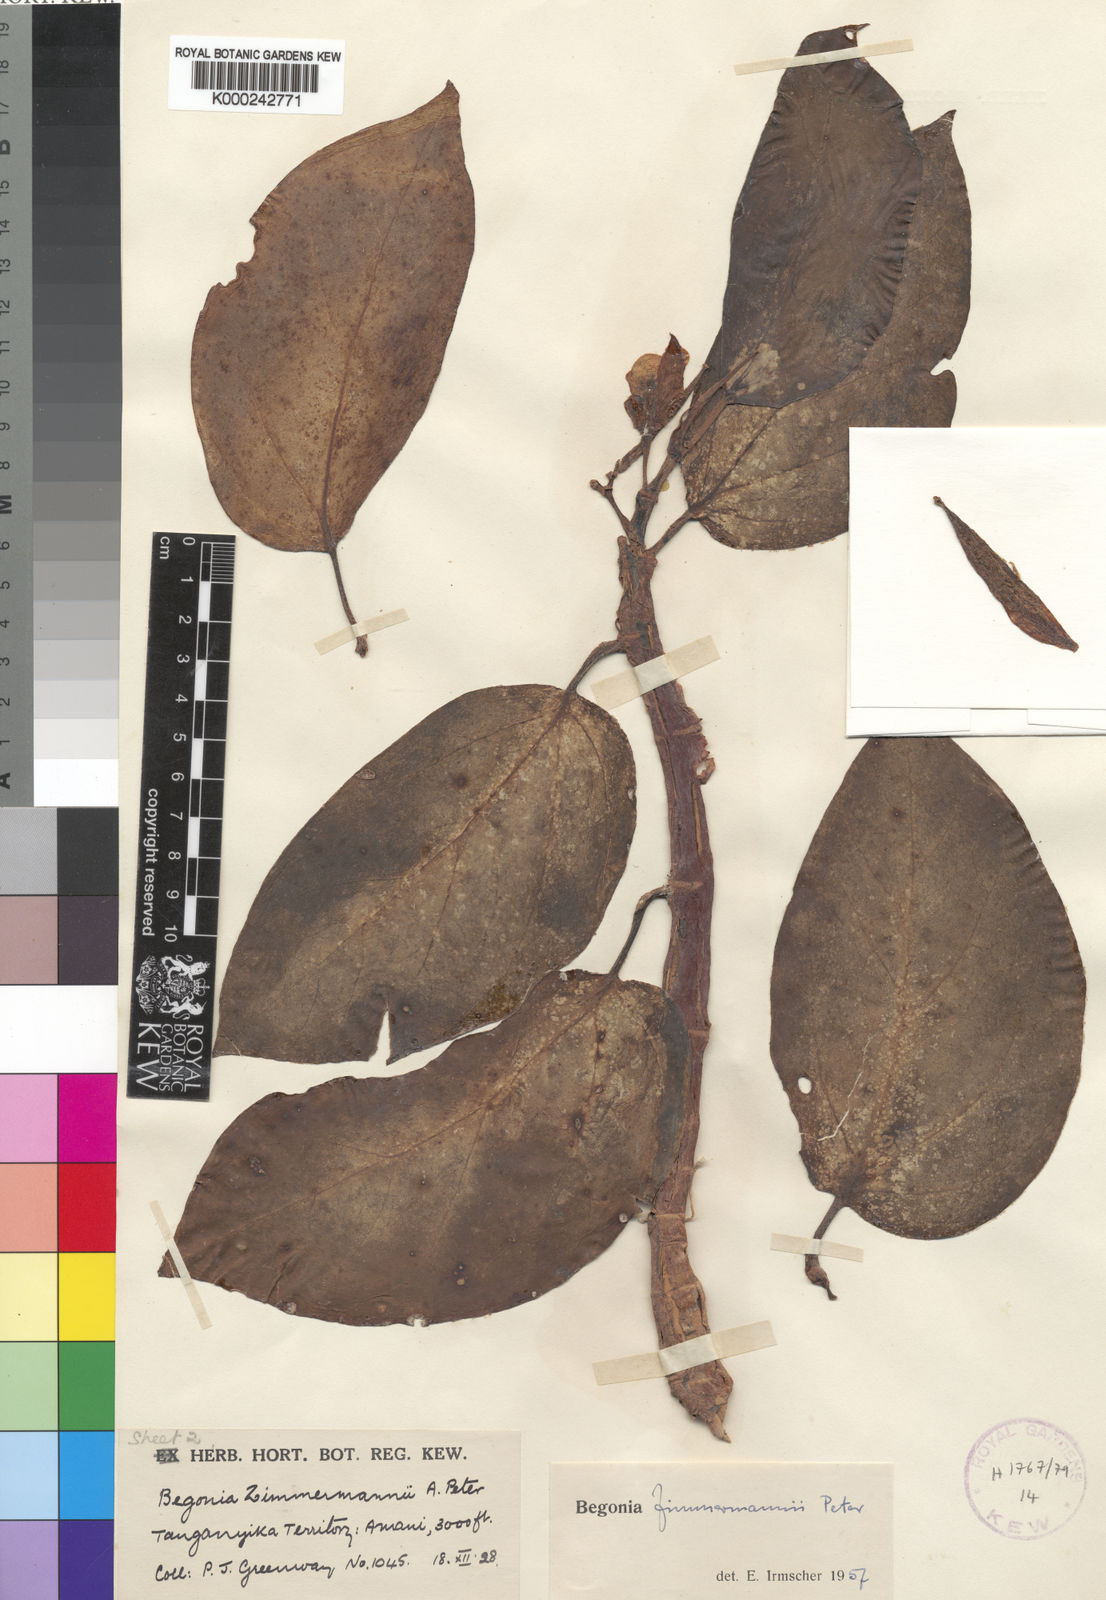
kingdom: Plantae
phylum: Tracheophyta
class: Magnoliopsida
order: Cucurbitales
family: Begoniaceae
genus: Begonia
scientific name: Begonia zimmermannii
